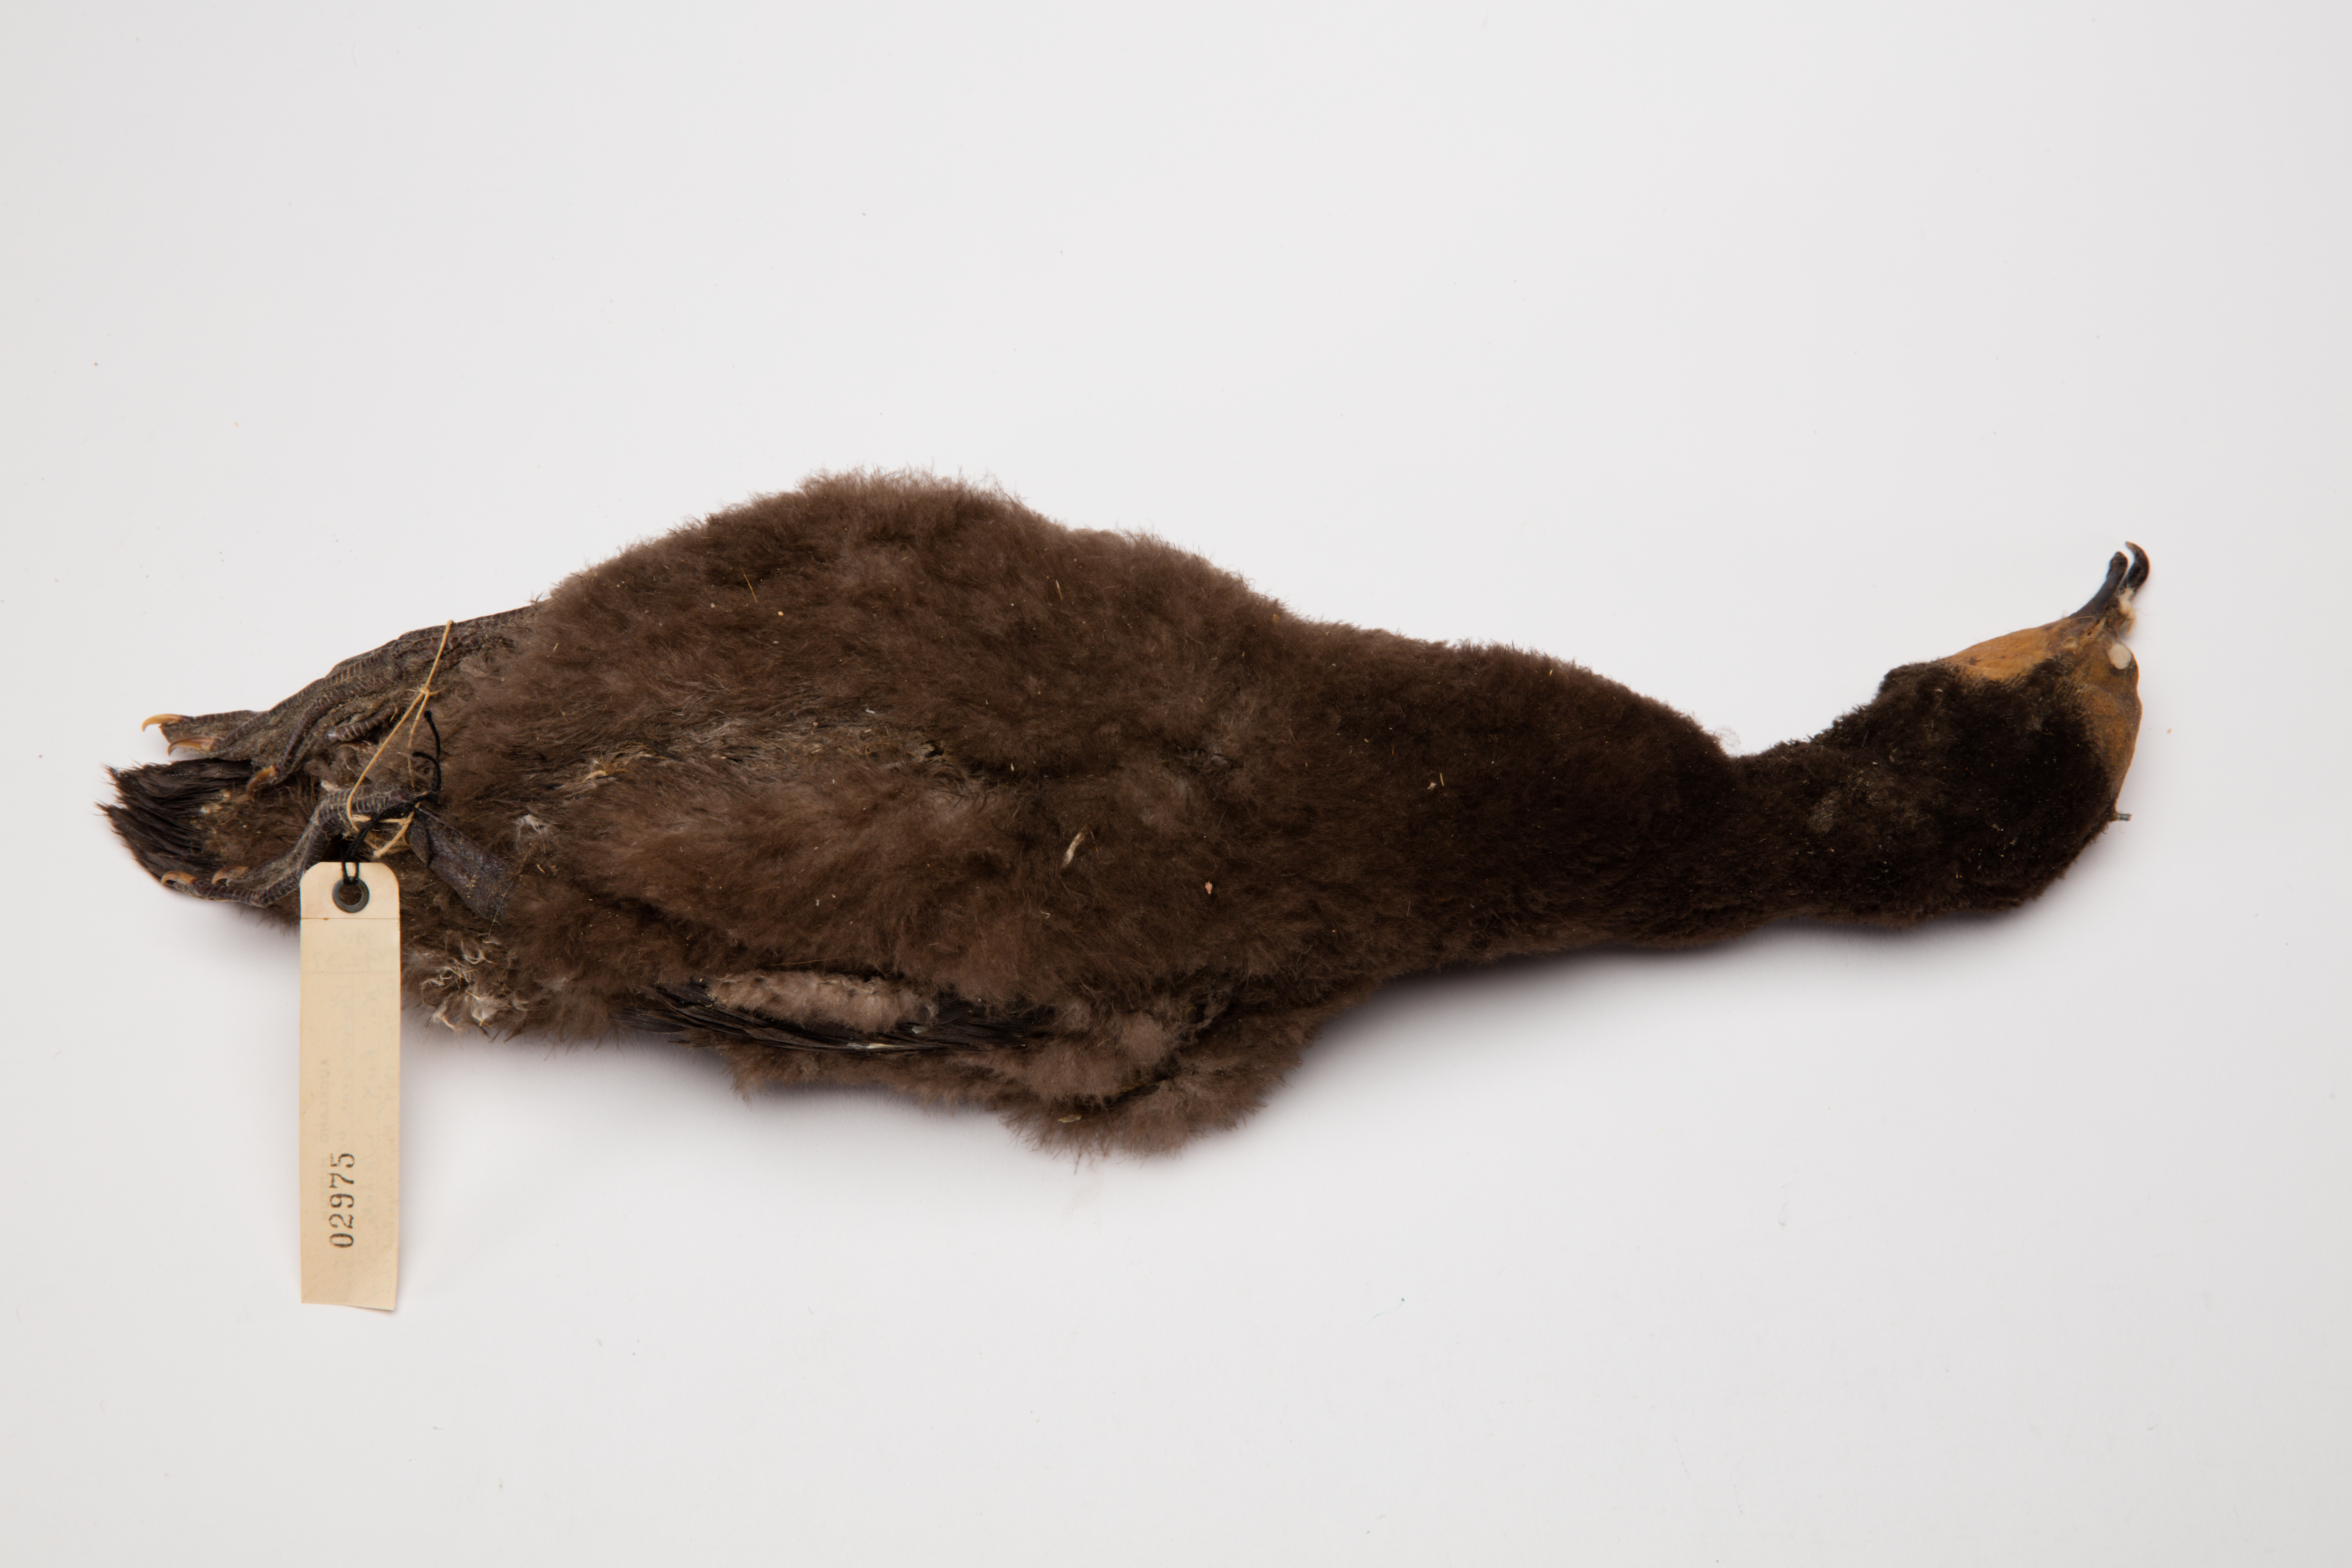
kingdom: Animalia
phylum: Chordata
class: Aves
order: Suliformes
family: Phalacrocoracidae
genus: Microcarbo
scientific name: Microcarbo melanoleucos
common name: Little pied cormorant
